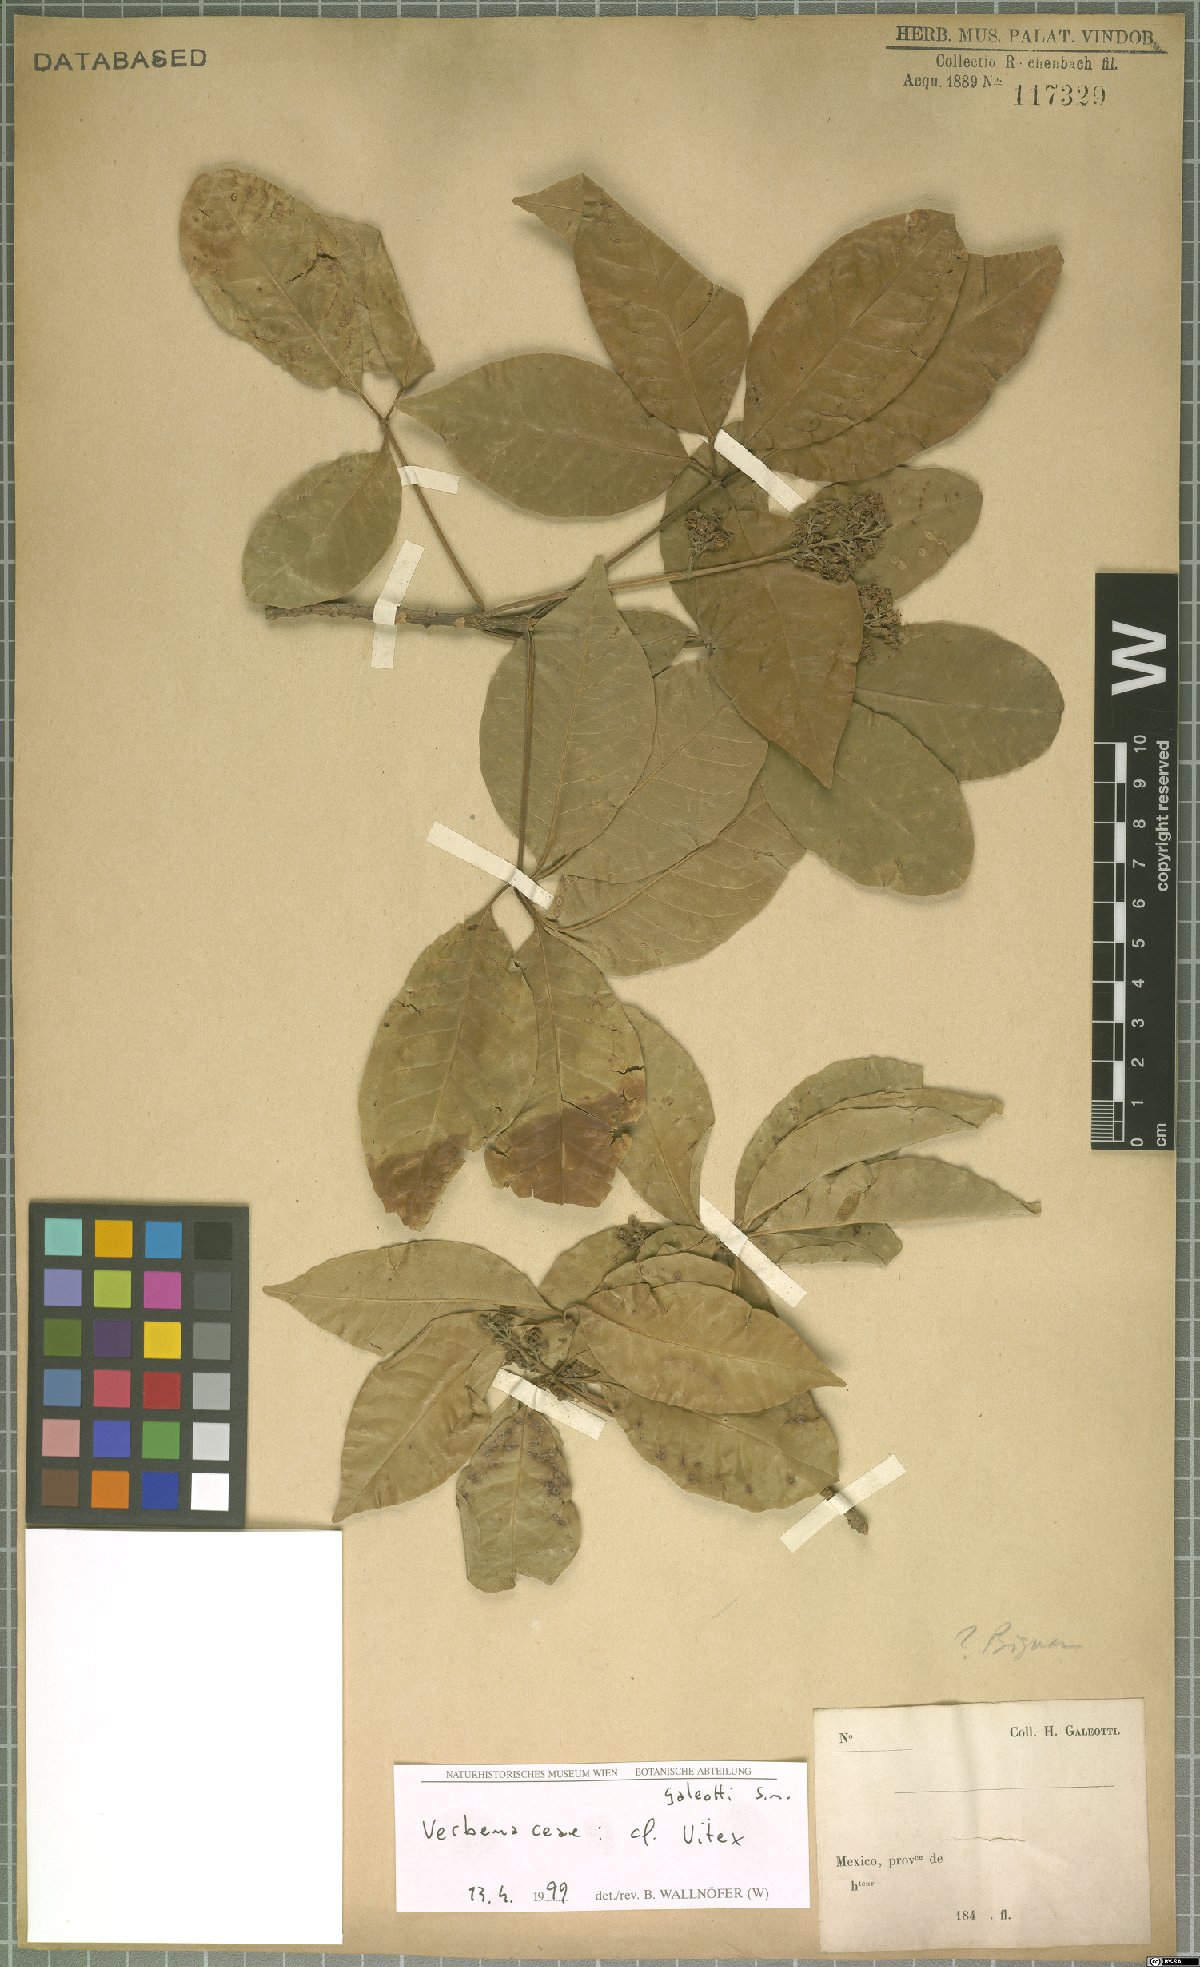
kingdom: Plantae
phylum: Tracheophyta
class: Magnoliopsida
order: Lamiales
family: Lamiaceae
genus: Vitex
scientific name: Vitex
